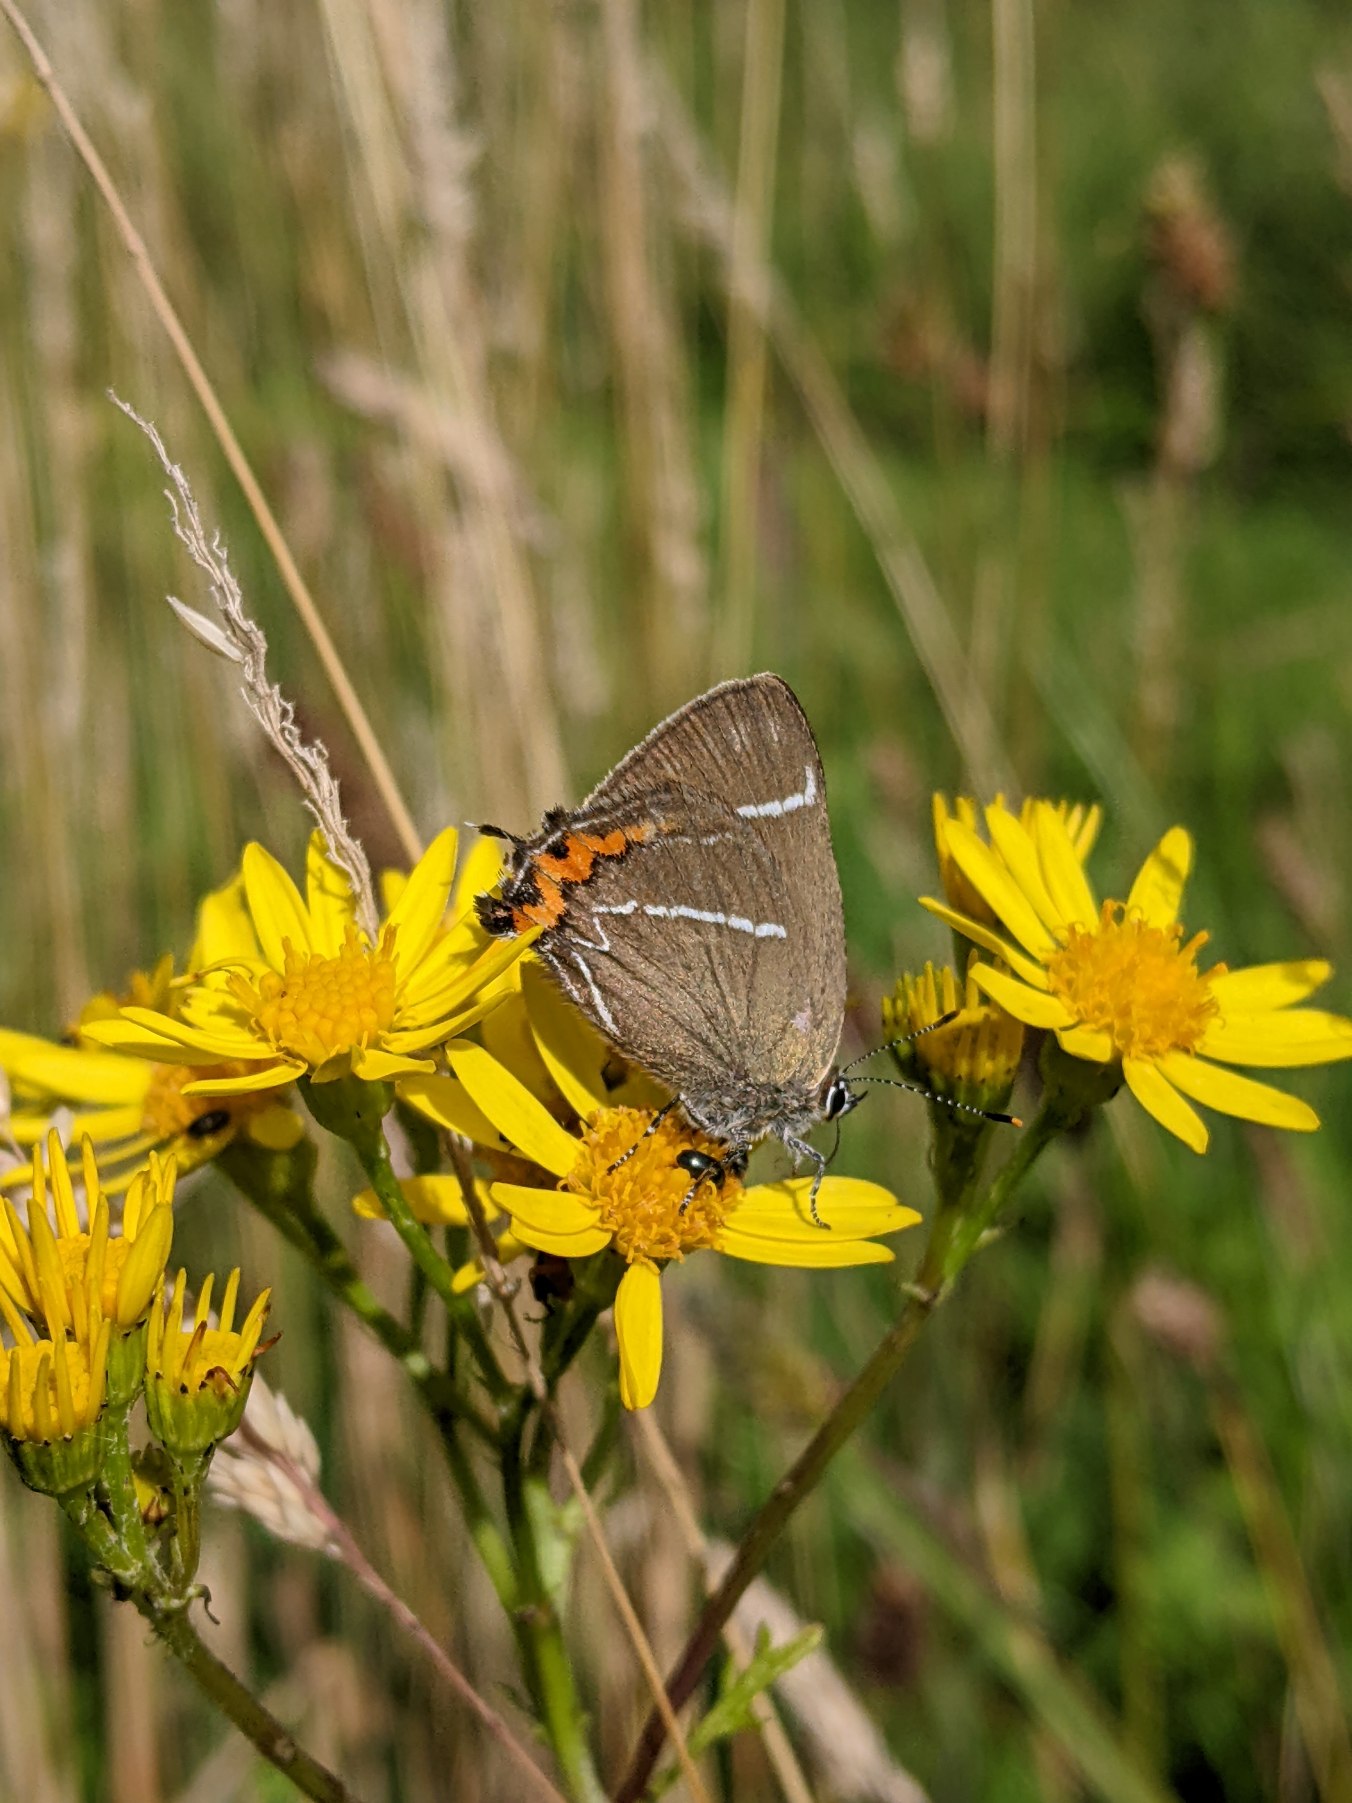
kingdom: Animalia
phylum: Arthropoda
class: Insecta
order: Lepidoptera
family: Lycaenidae
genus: Satyrium
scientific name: Satyrium w-album
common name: Det hvide W
